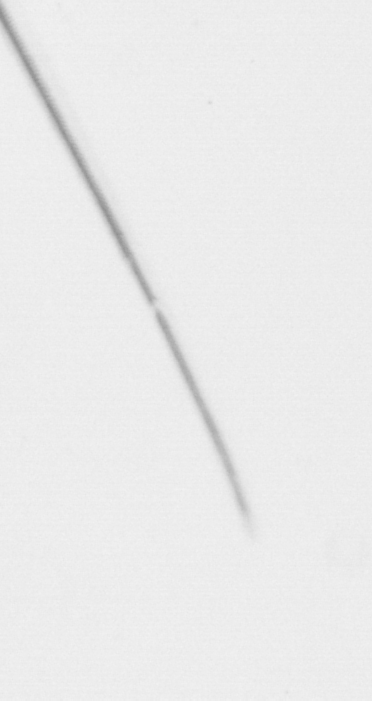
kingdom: Chromista
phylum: Ochrophyta
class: Bacillariophyceae
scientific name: Bacillariophyceae
